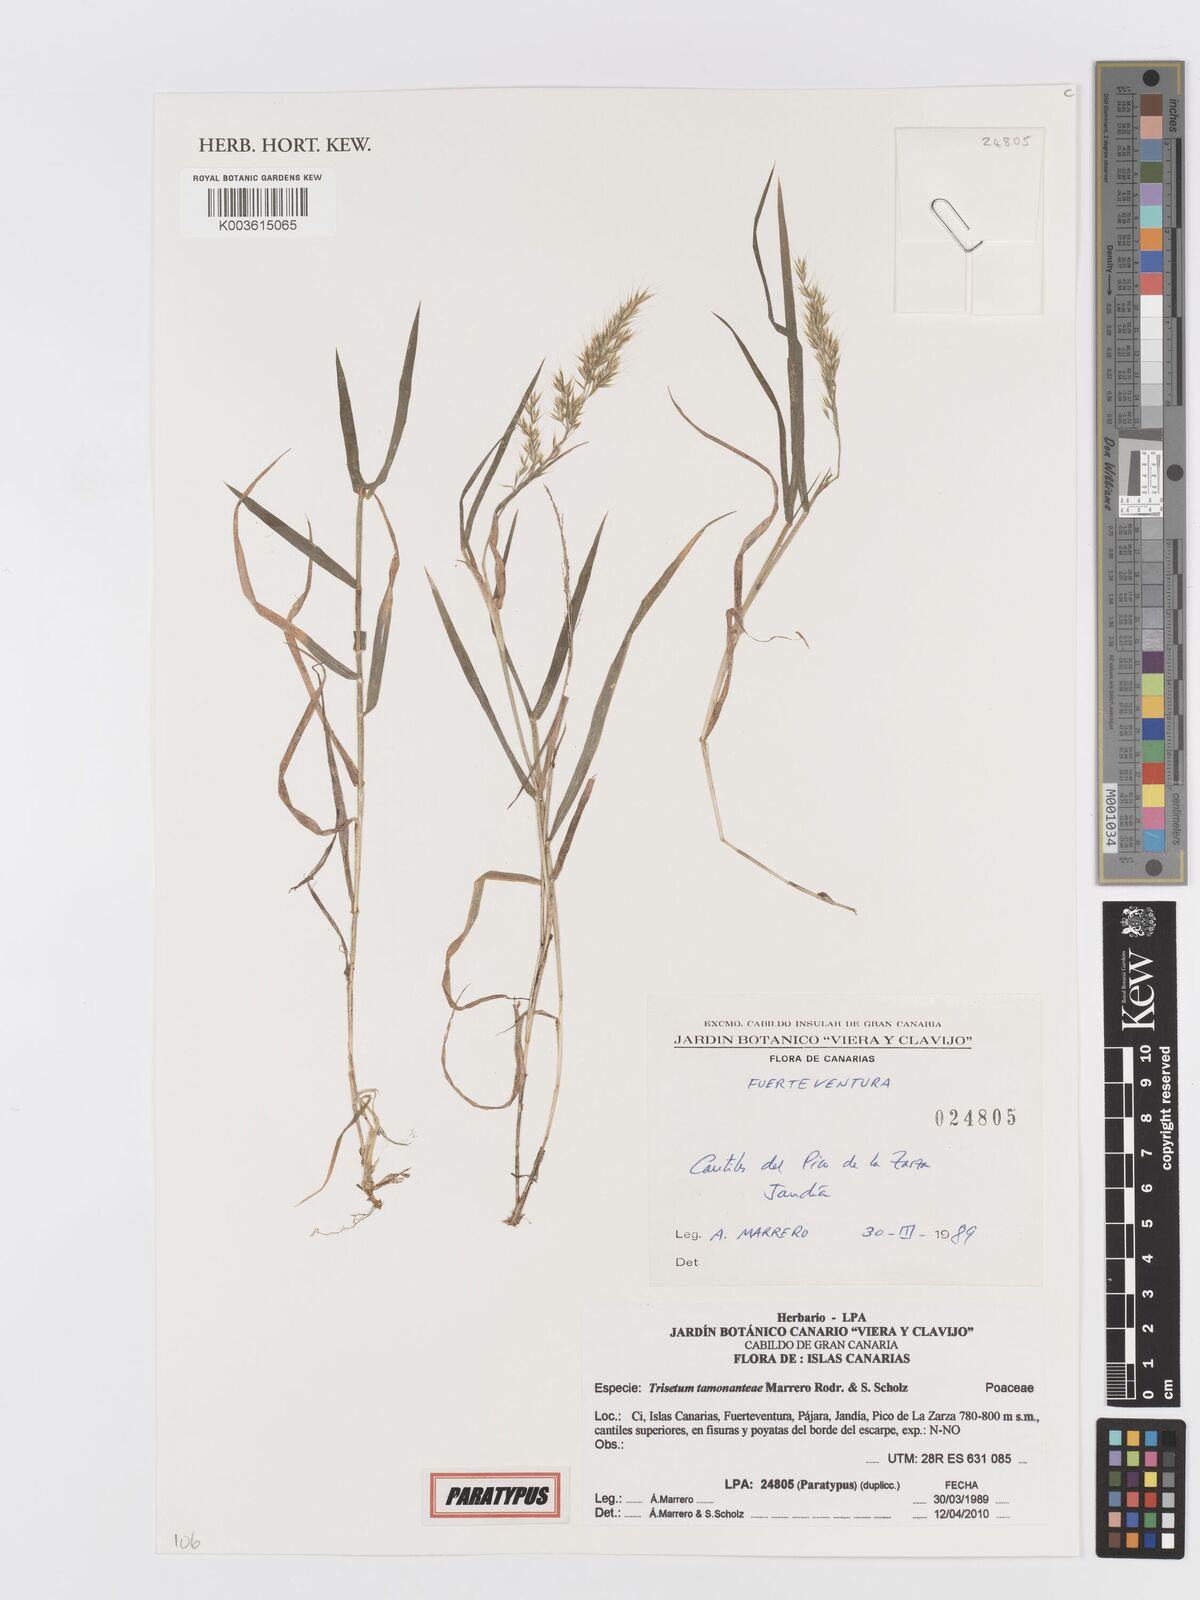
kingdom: Plantae
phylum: Tracheophyta
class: Liliopsida
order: Poales
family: Poaceae
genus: Trisetum
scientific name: Trisetum tamonanteae
